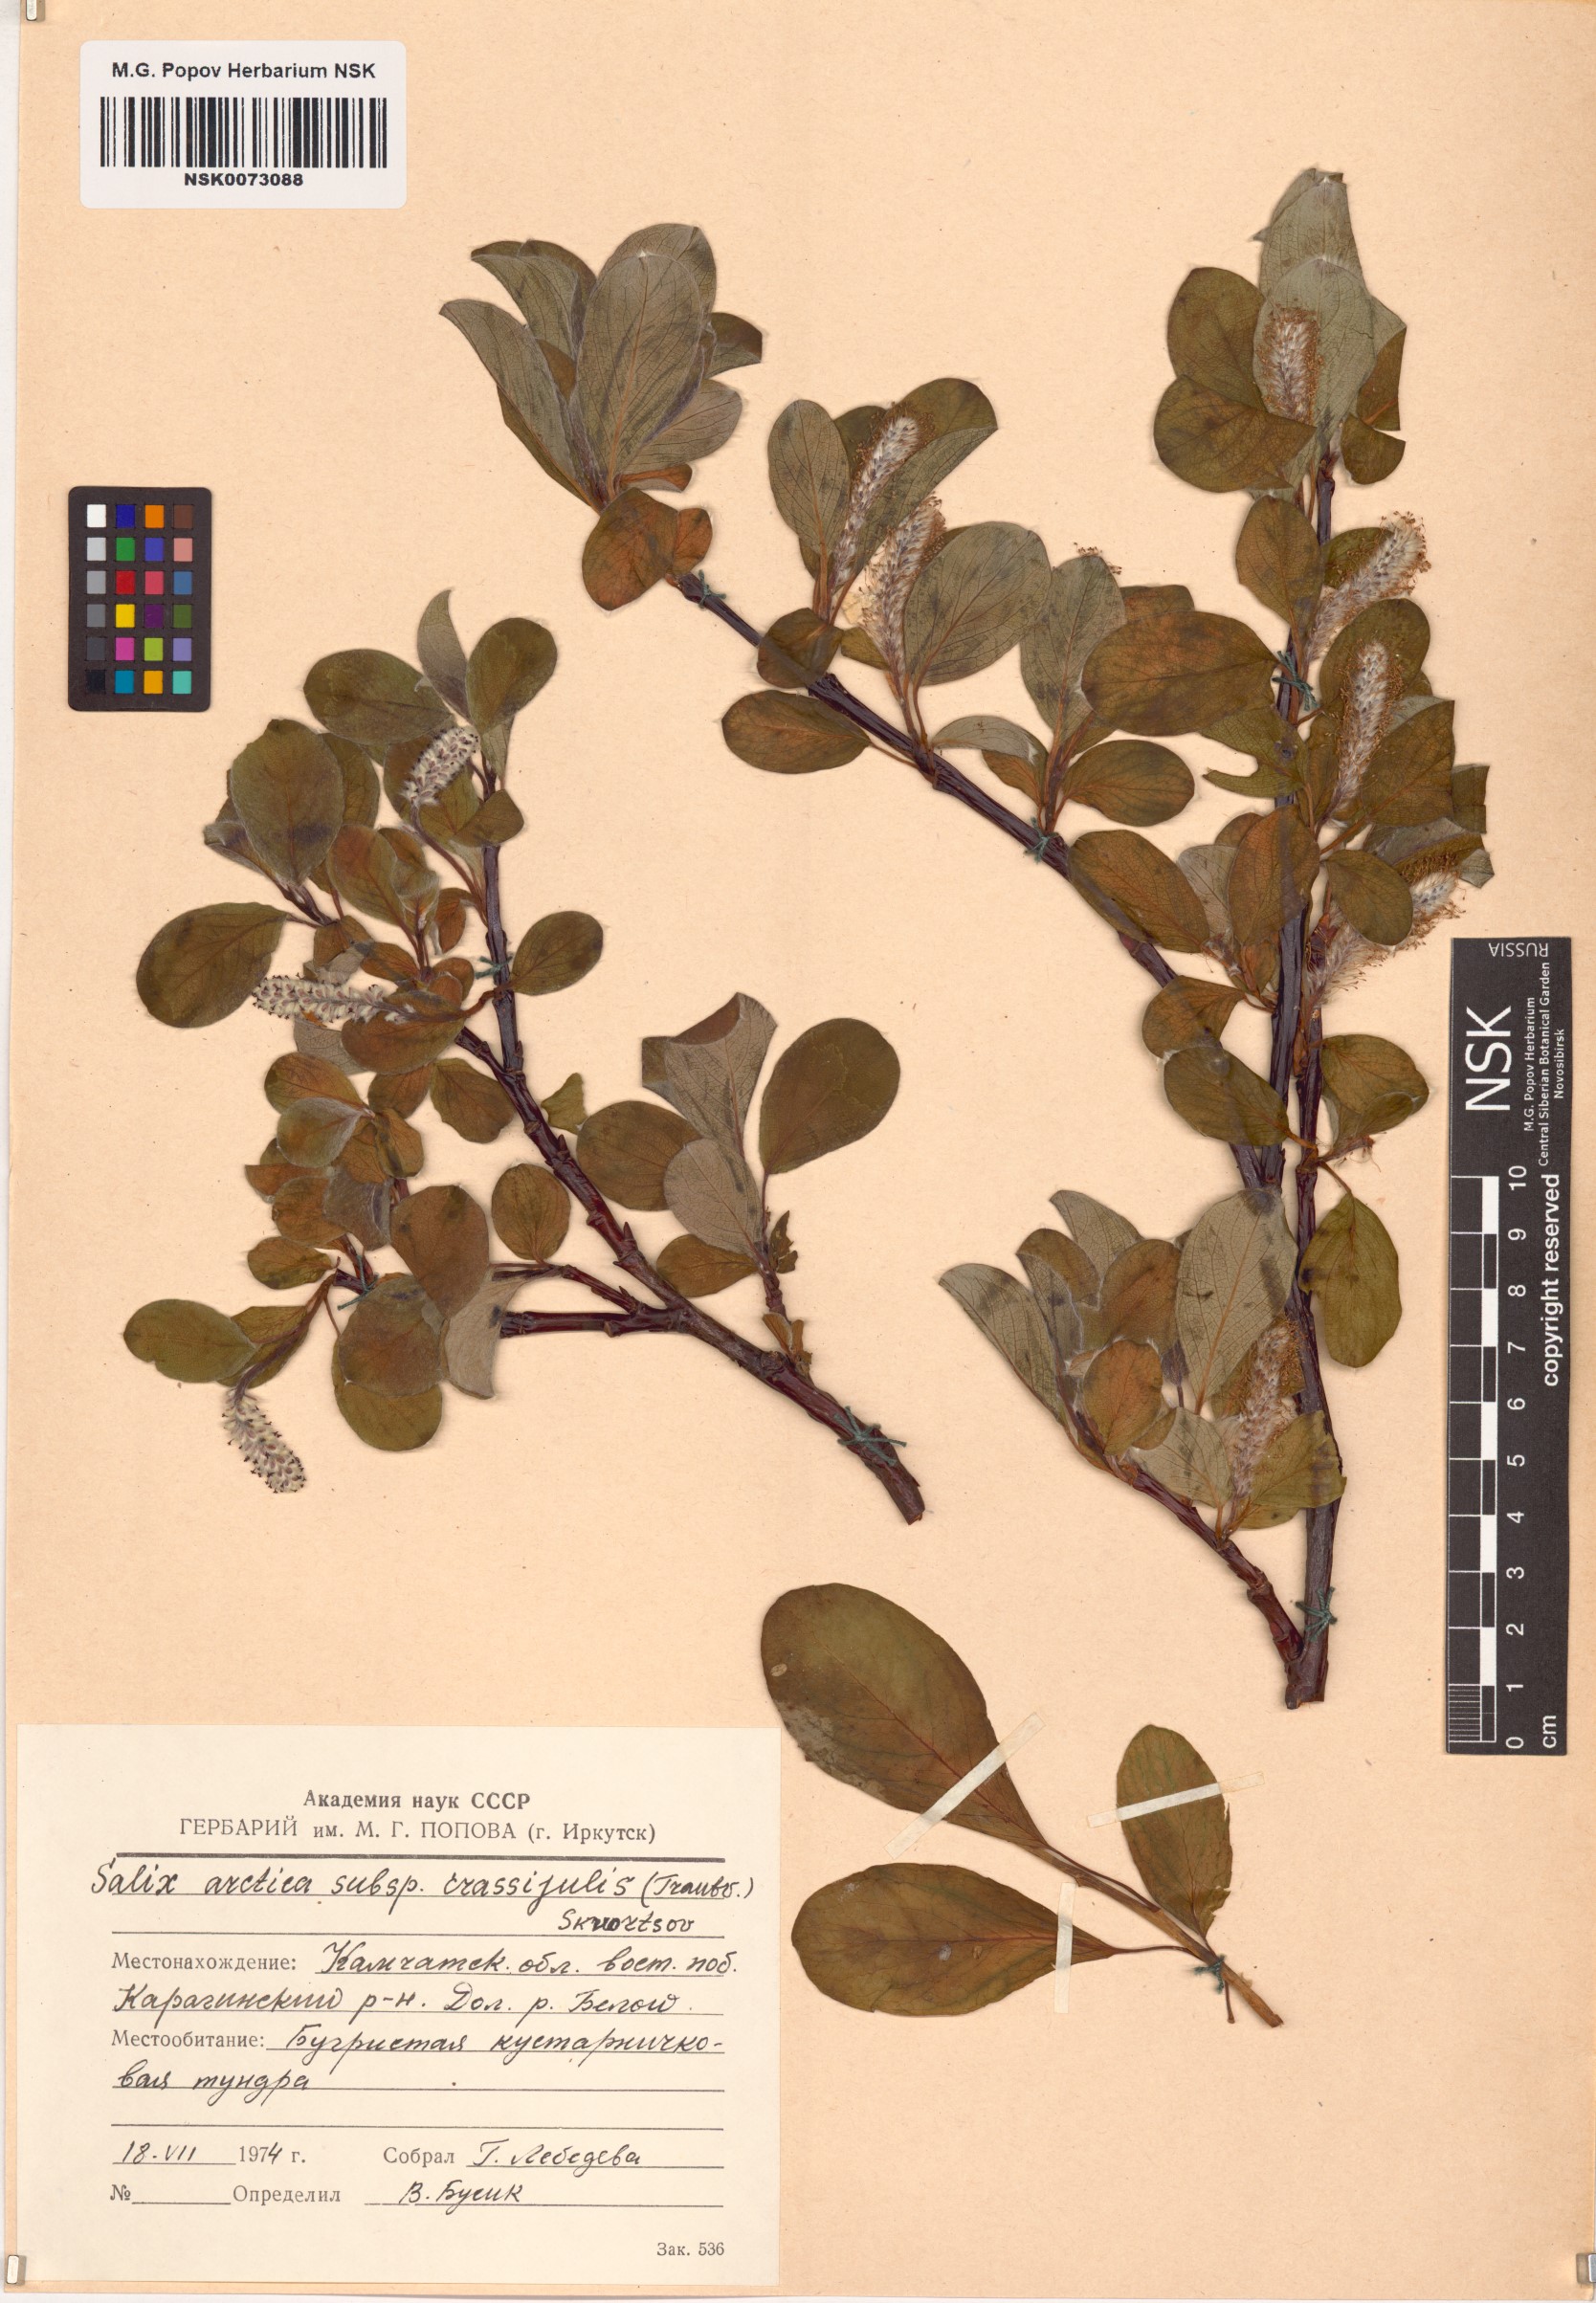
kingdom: Plantae
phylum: Tracheophyta
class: Magnoliopsida
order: Malpighiales
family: Salicaceae
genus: Salix
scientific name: Salix arctica
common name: Arctic willow
